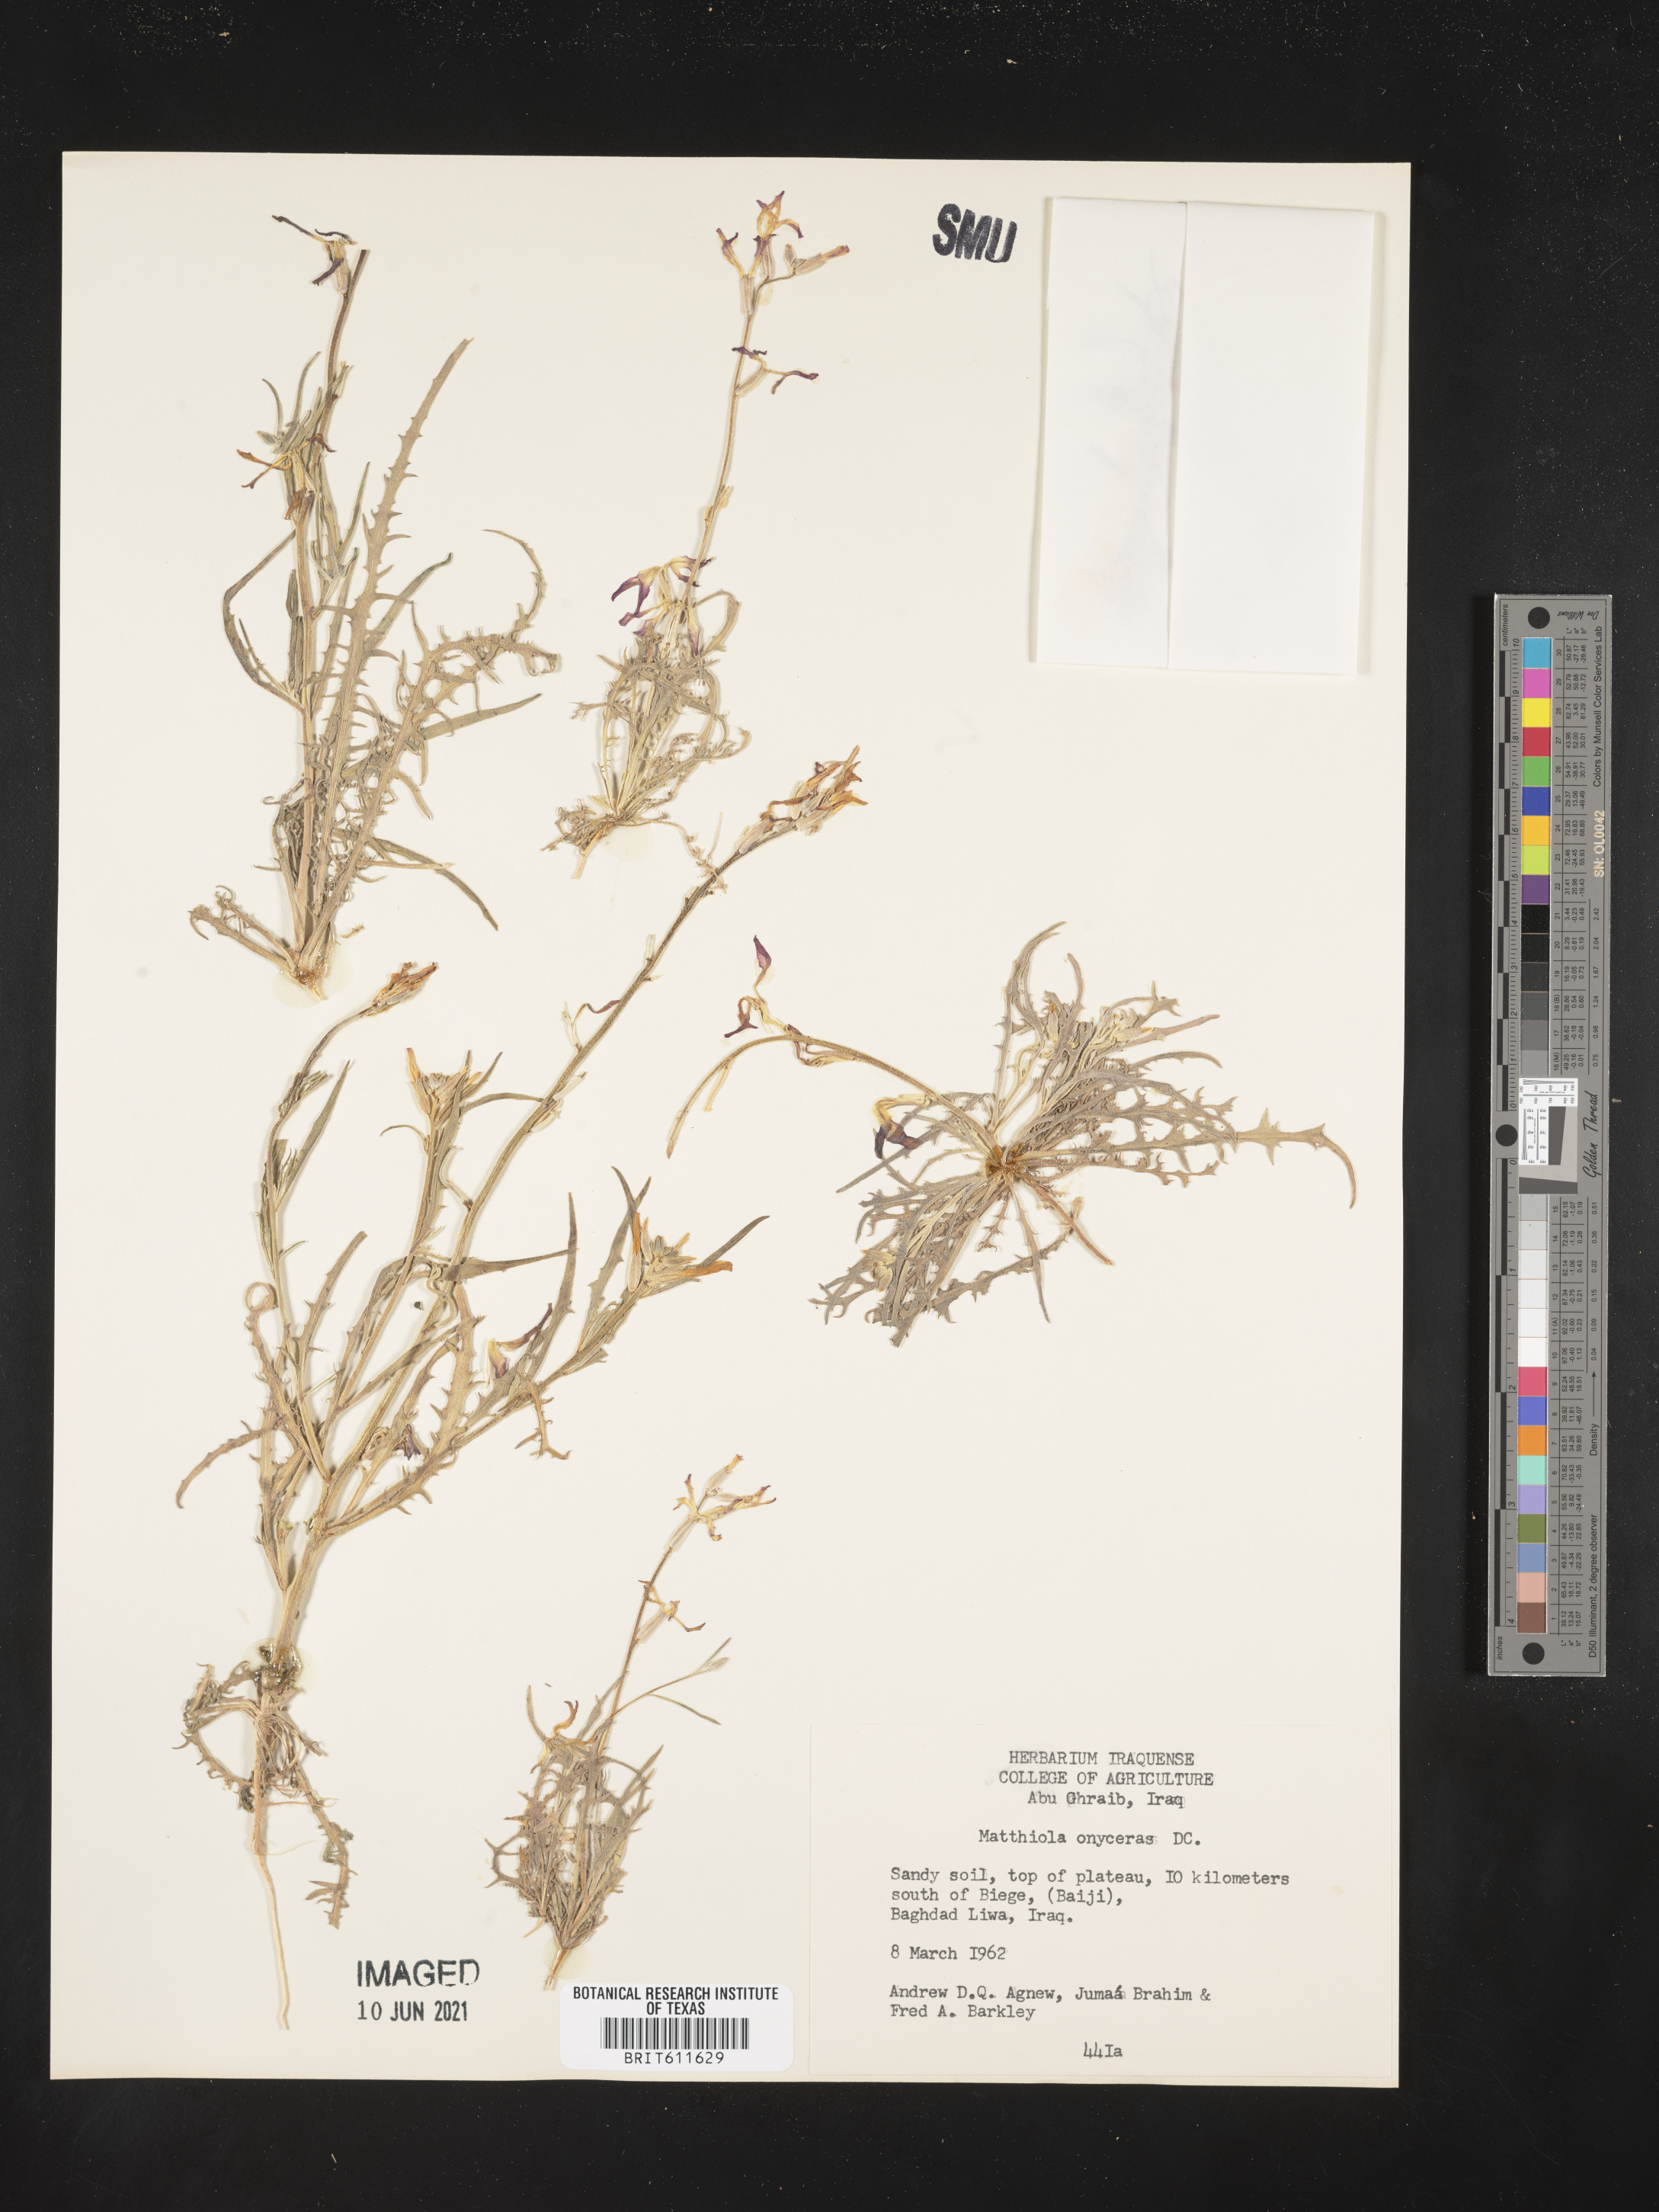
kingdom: Plantae
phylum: Tracheophyta
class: Magnoliopsida
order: Brassicales
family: Brassicaceae
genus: Matthiola
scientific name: Matthiola
